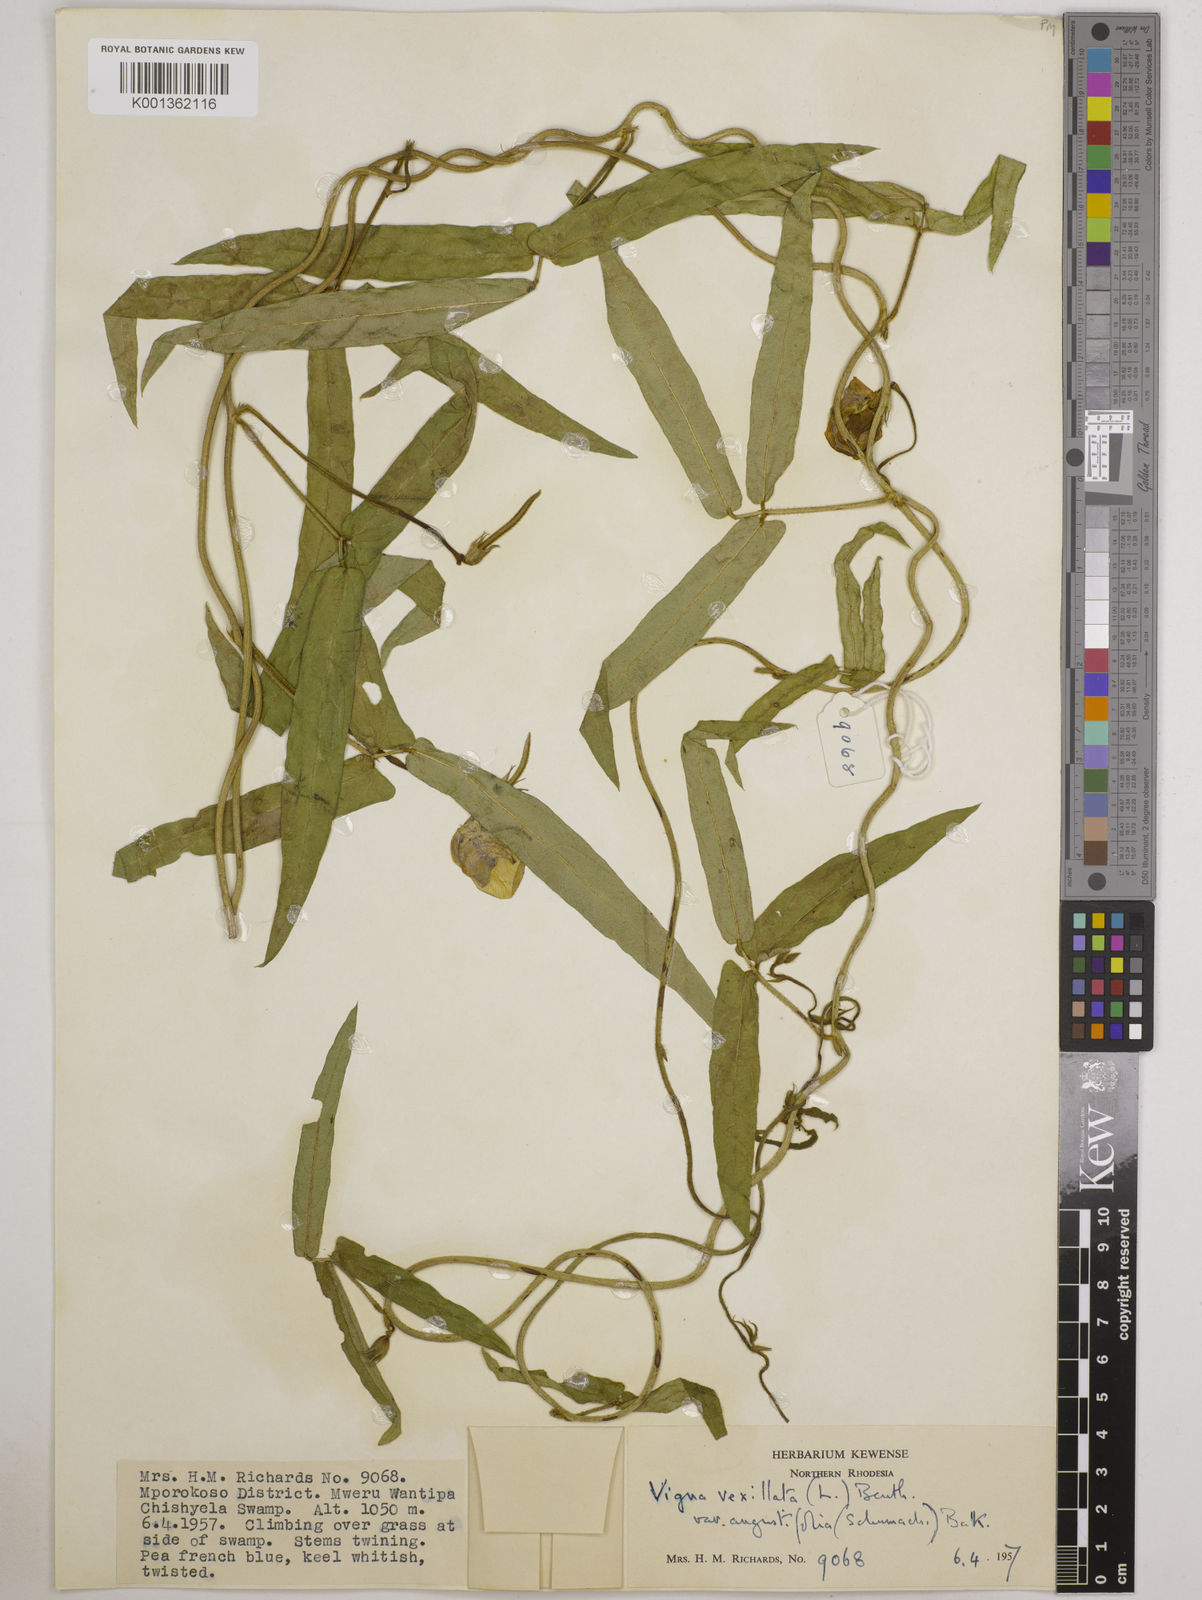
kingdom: Plantae
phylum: Tracheophyta
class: Magnoliopsida
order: Fabales
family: Fabaceae
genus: Vigna
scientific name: Vigna vexillata
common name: Zombi pea
